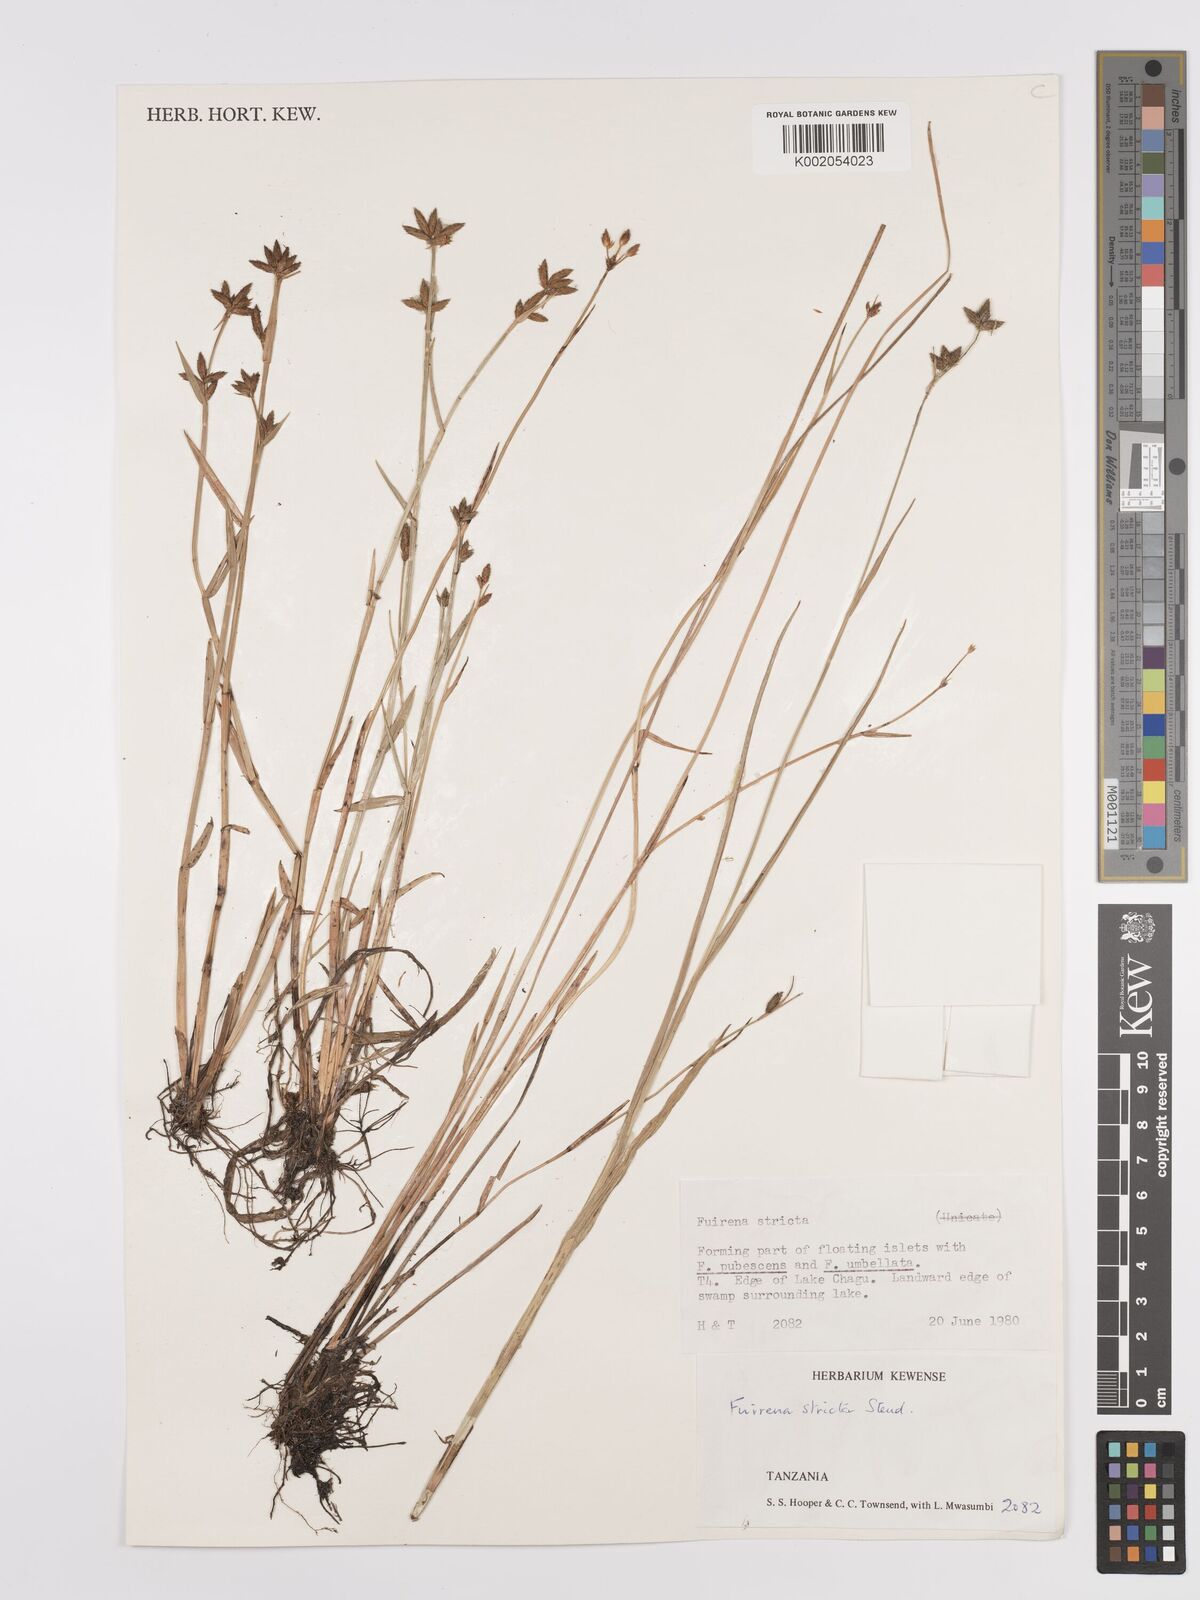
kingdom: Plantae
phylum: Tracheophyta
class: Liliopsida
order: Poales
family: Cyperaceae
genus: Fuirena
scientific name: Fuirena stricta
